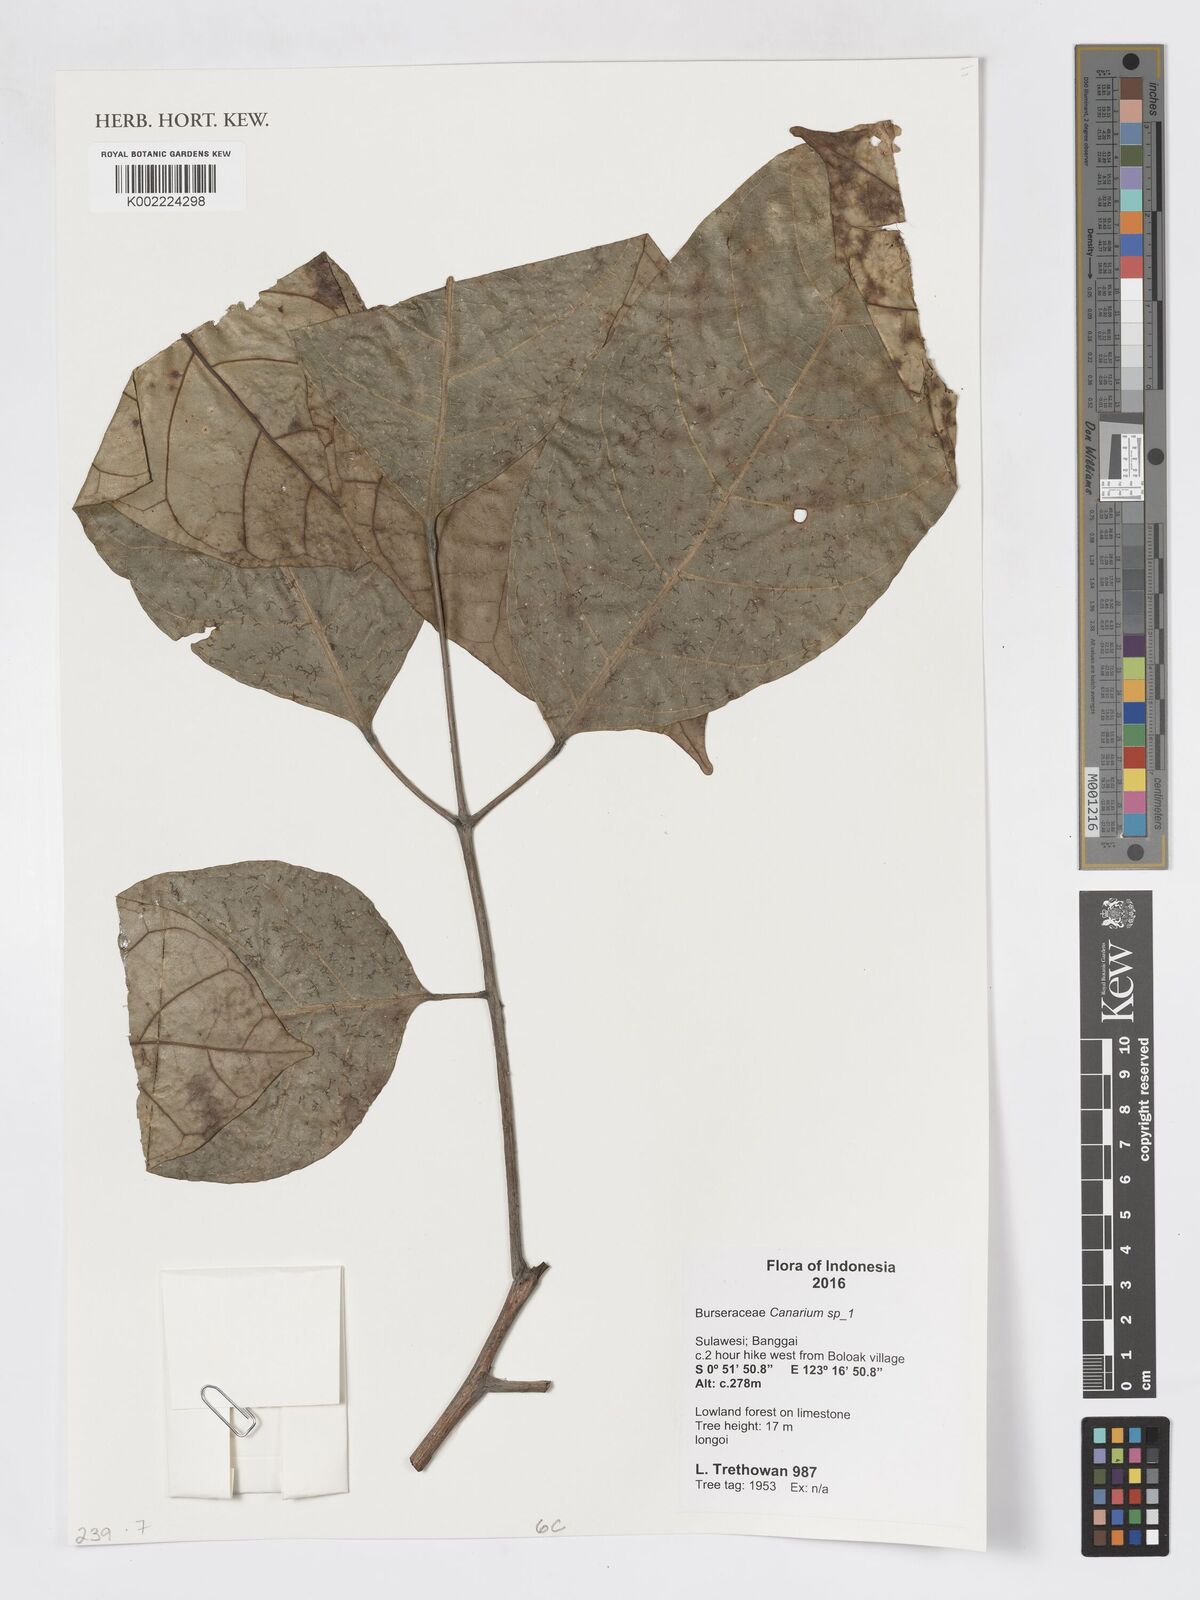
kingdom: Plantae
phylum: Tracheophyta
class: Magnoliopsida
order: Sapindales
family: Burseraceae
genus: Canarium
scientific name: Canarium
